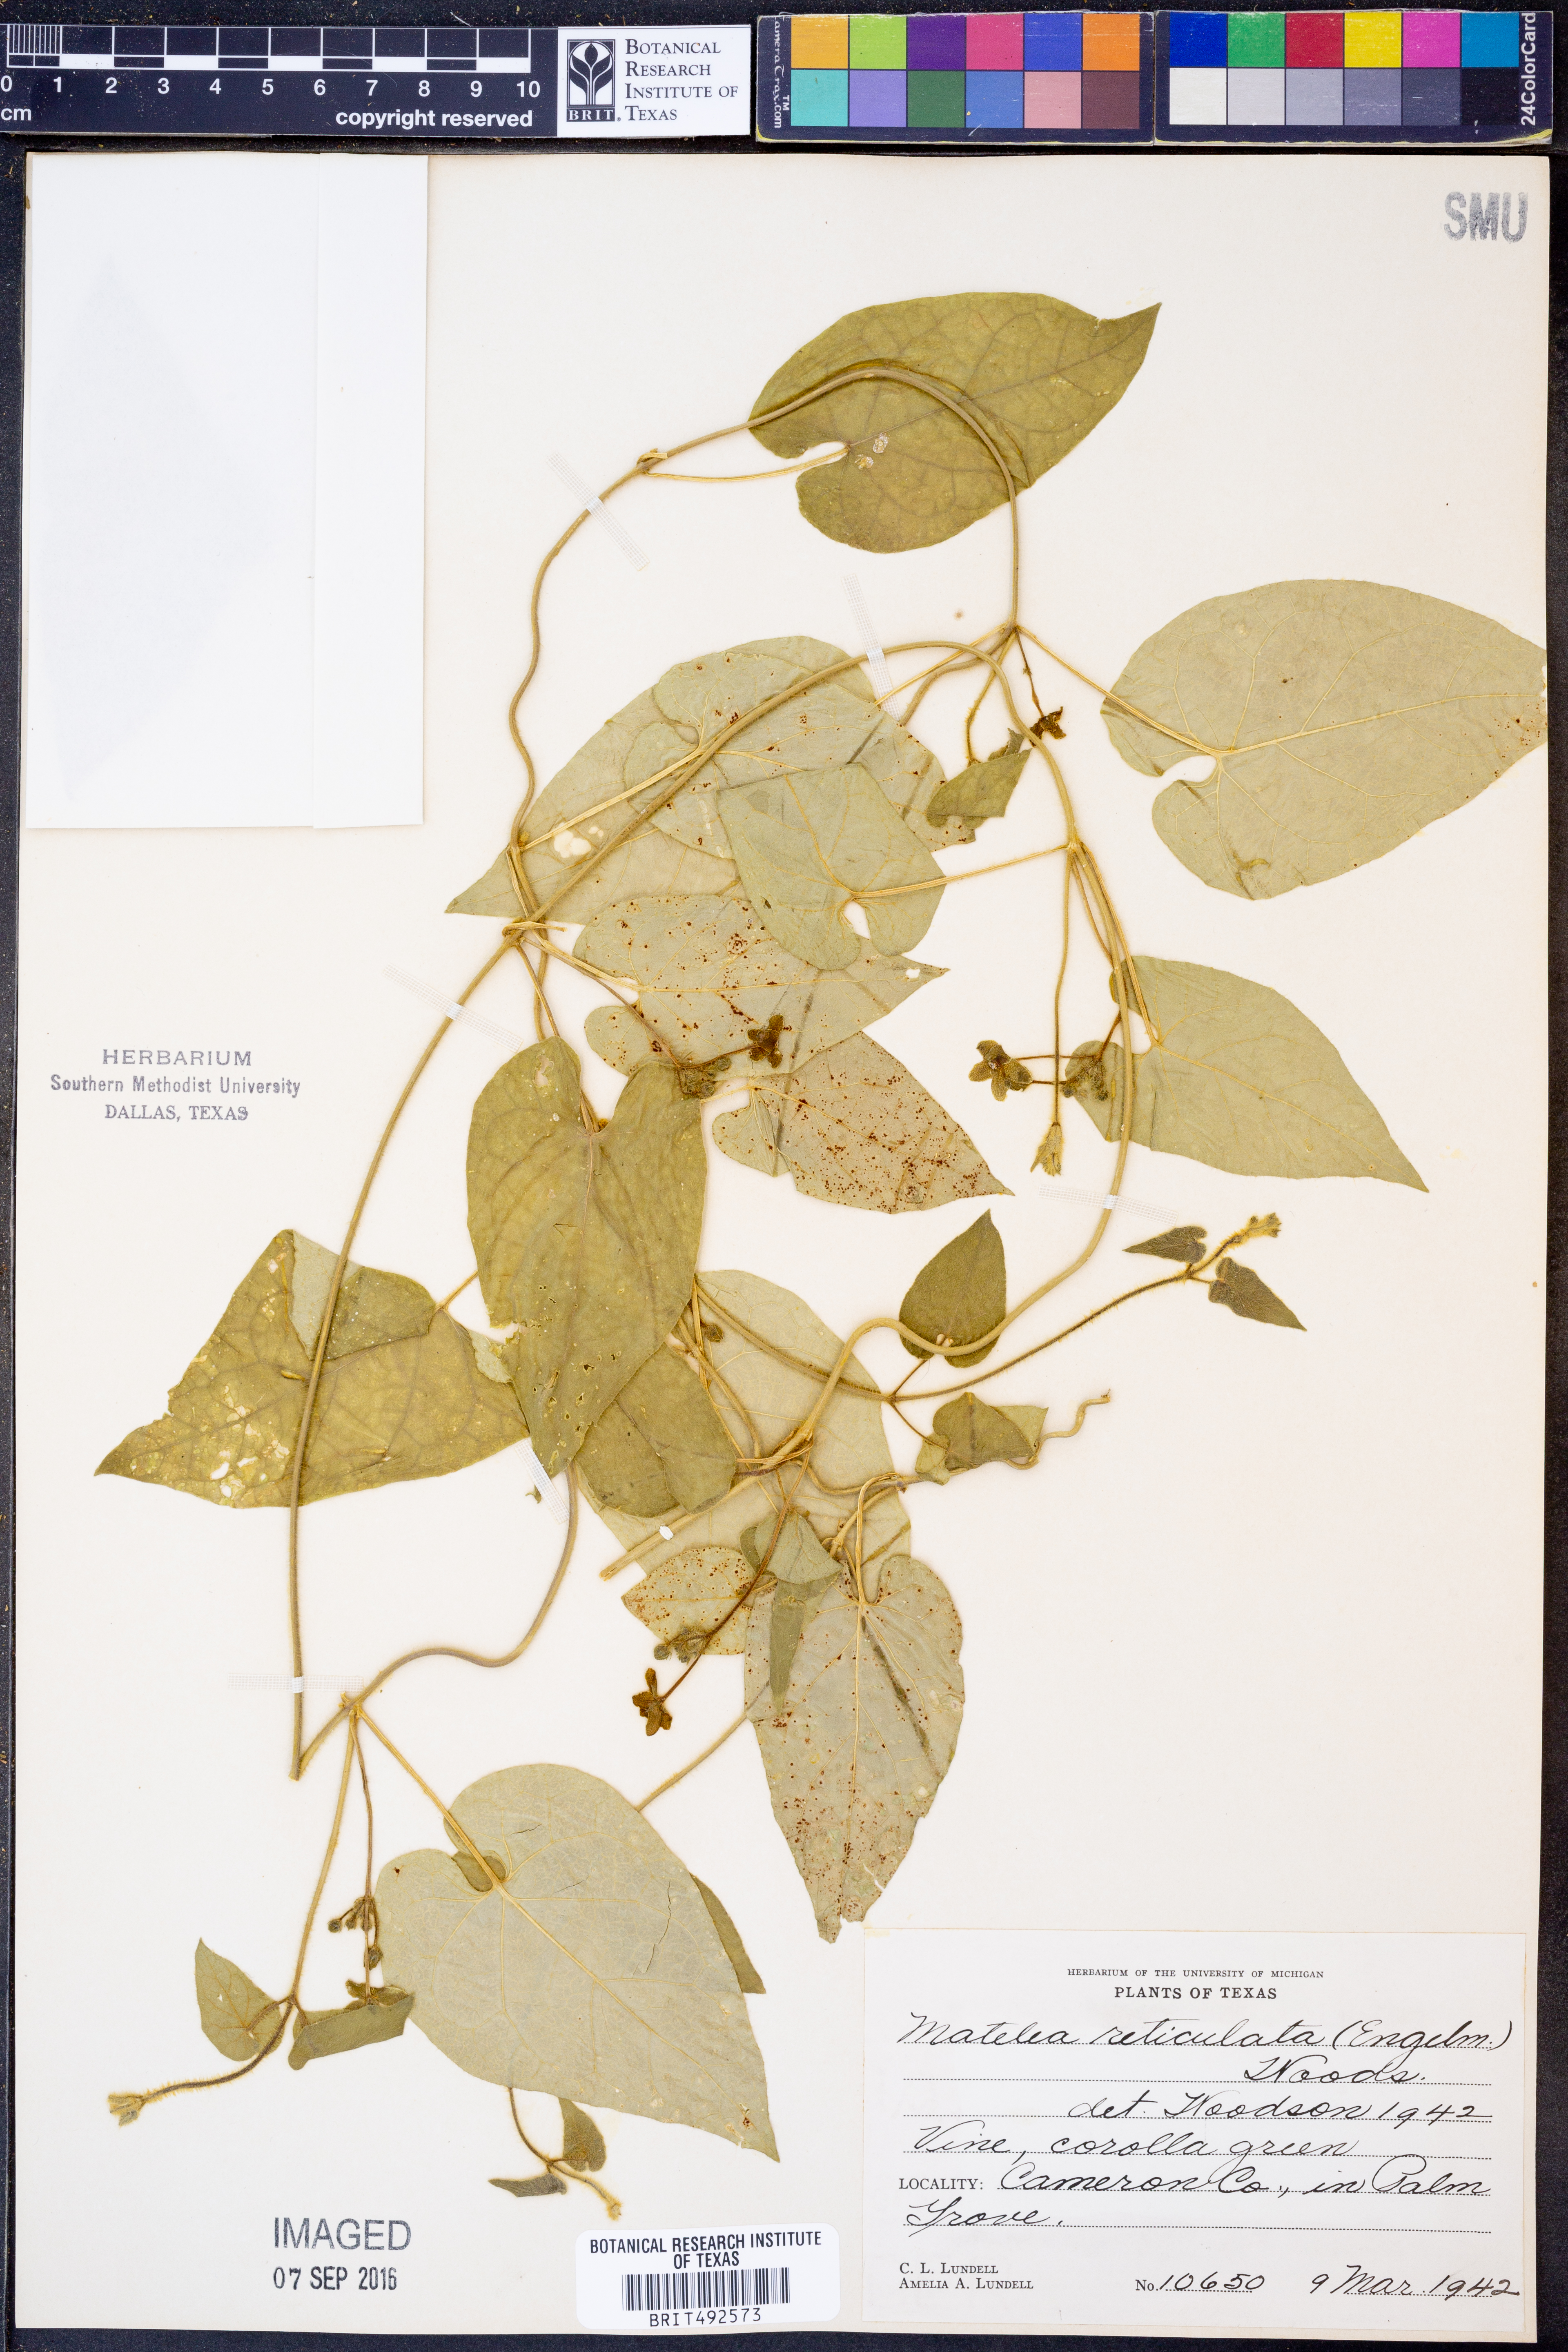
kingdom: Plantae
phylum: Tracheophyta
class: Magnoliopsida
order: Gentianales
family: Apocynaceae
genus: Dictyanthus
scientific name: Dictyanthus reticulatus
